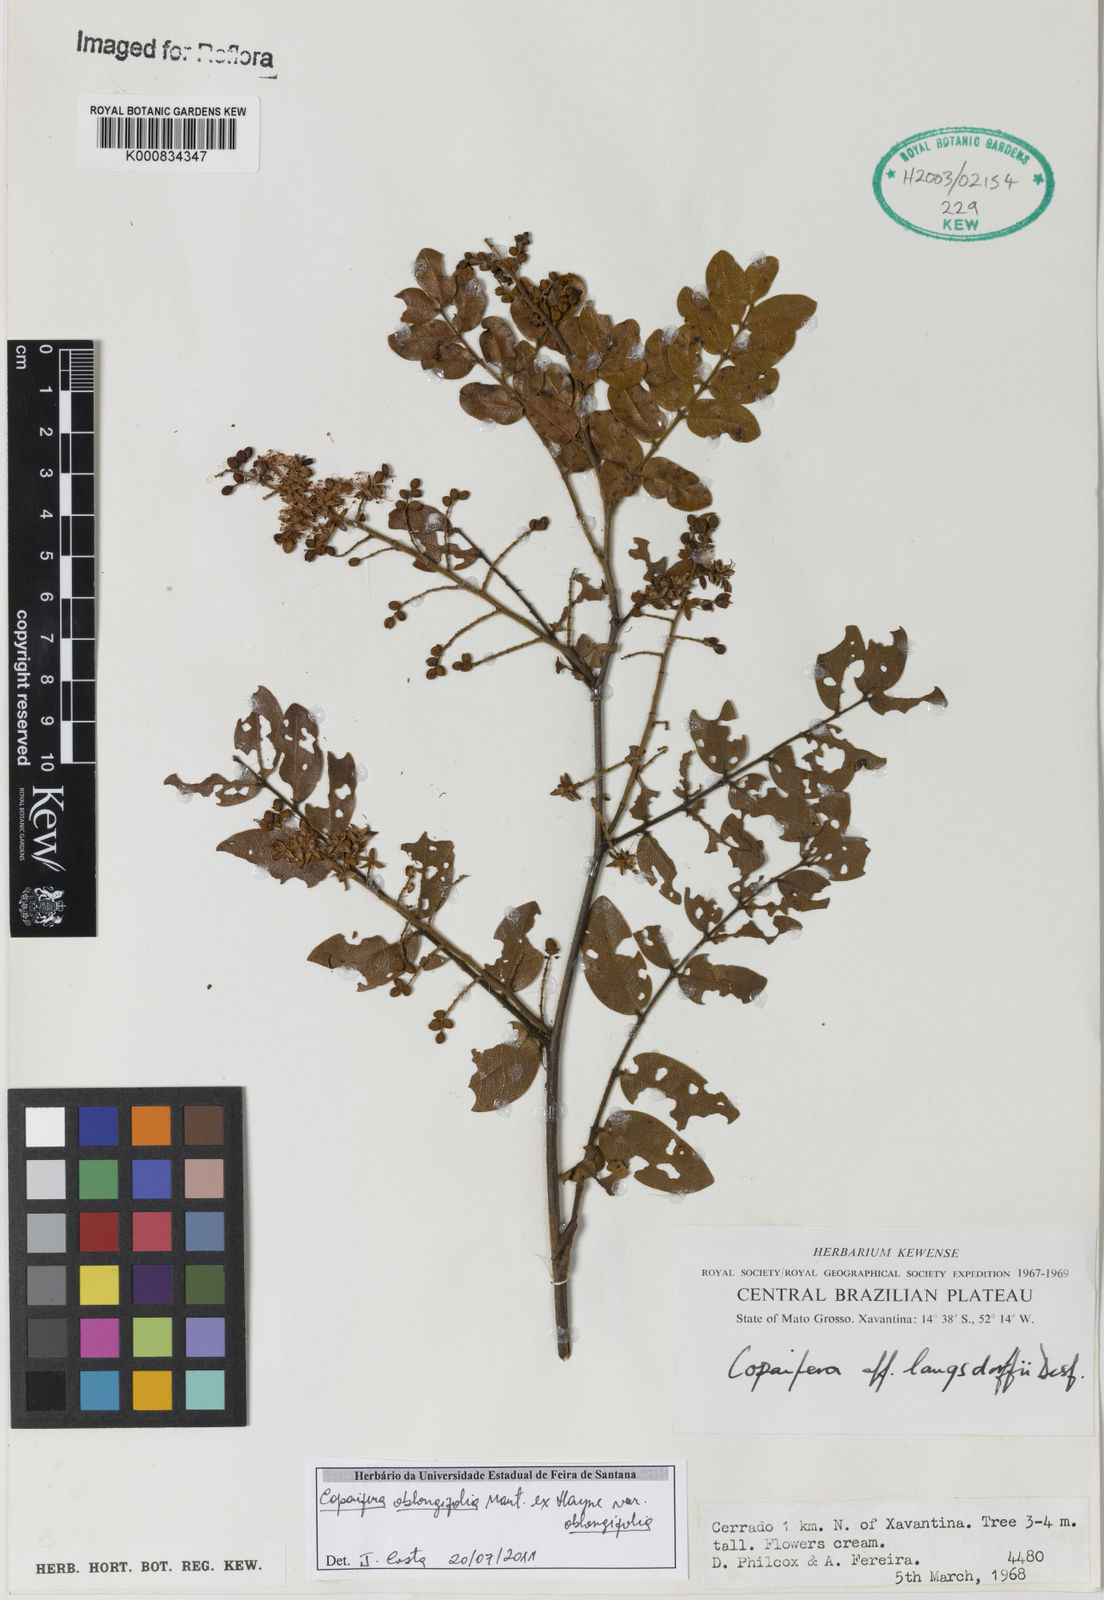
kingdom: Plantae
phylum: Tracheophyta
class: Magnoliopsida
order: Fabales
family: Fabaceae
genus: Copaifera
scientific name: Copaifera
